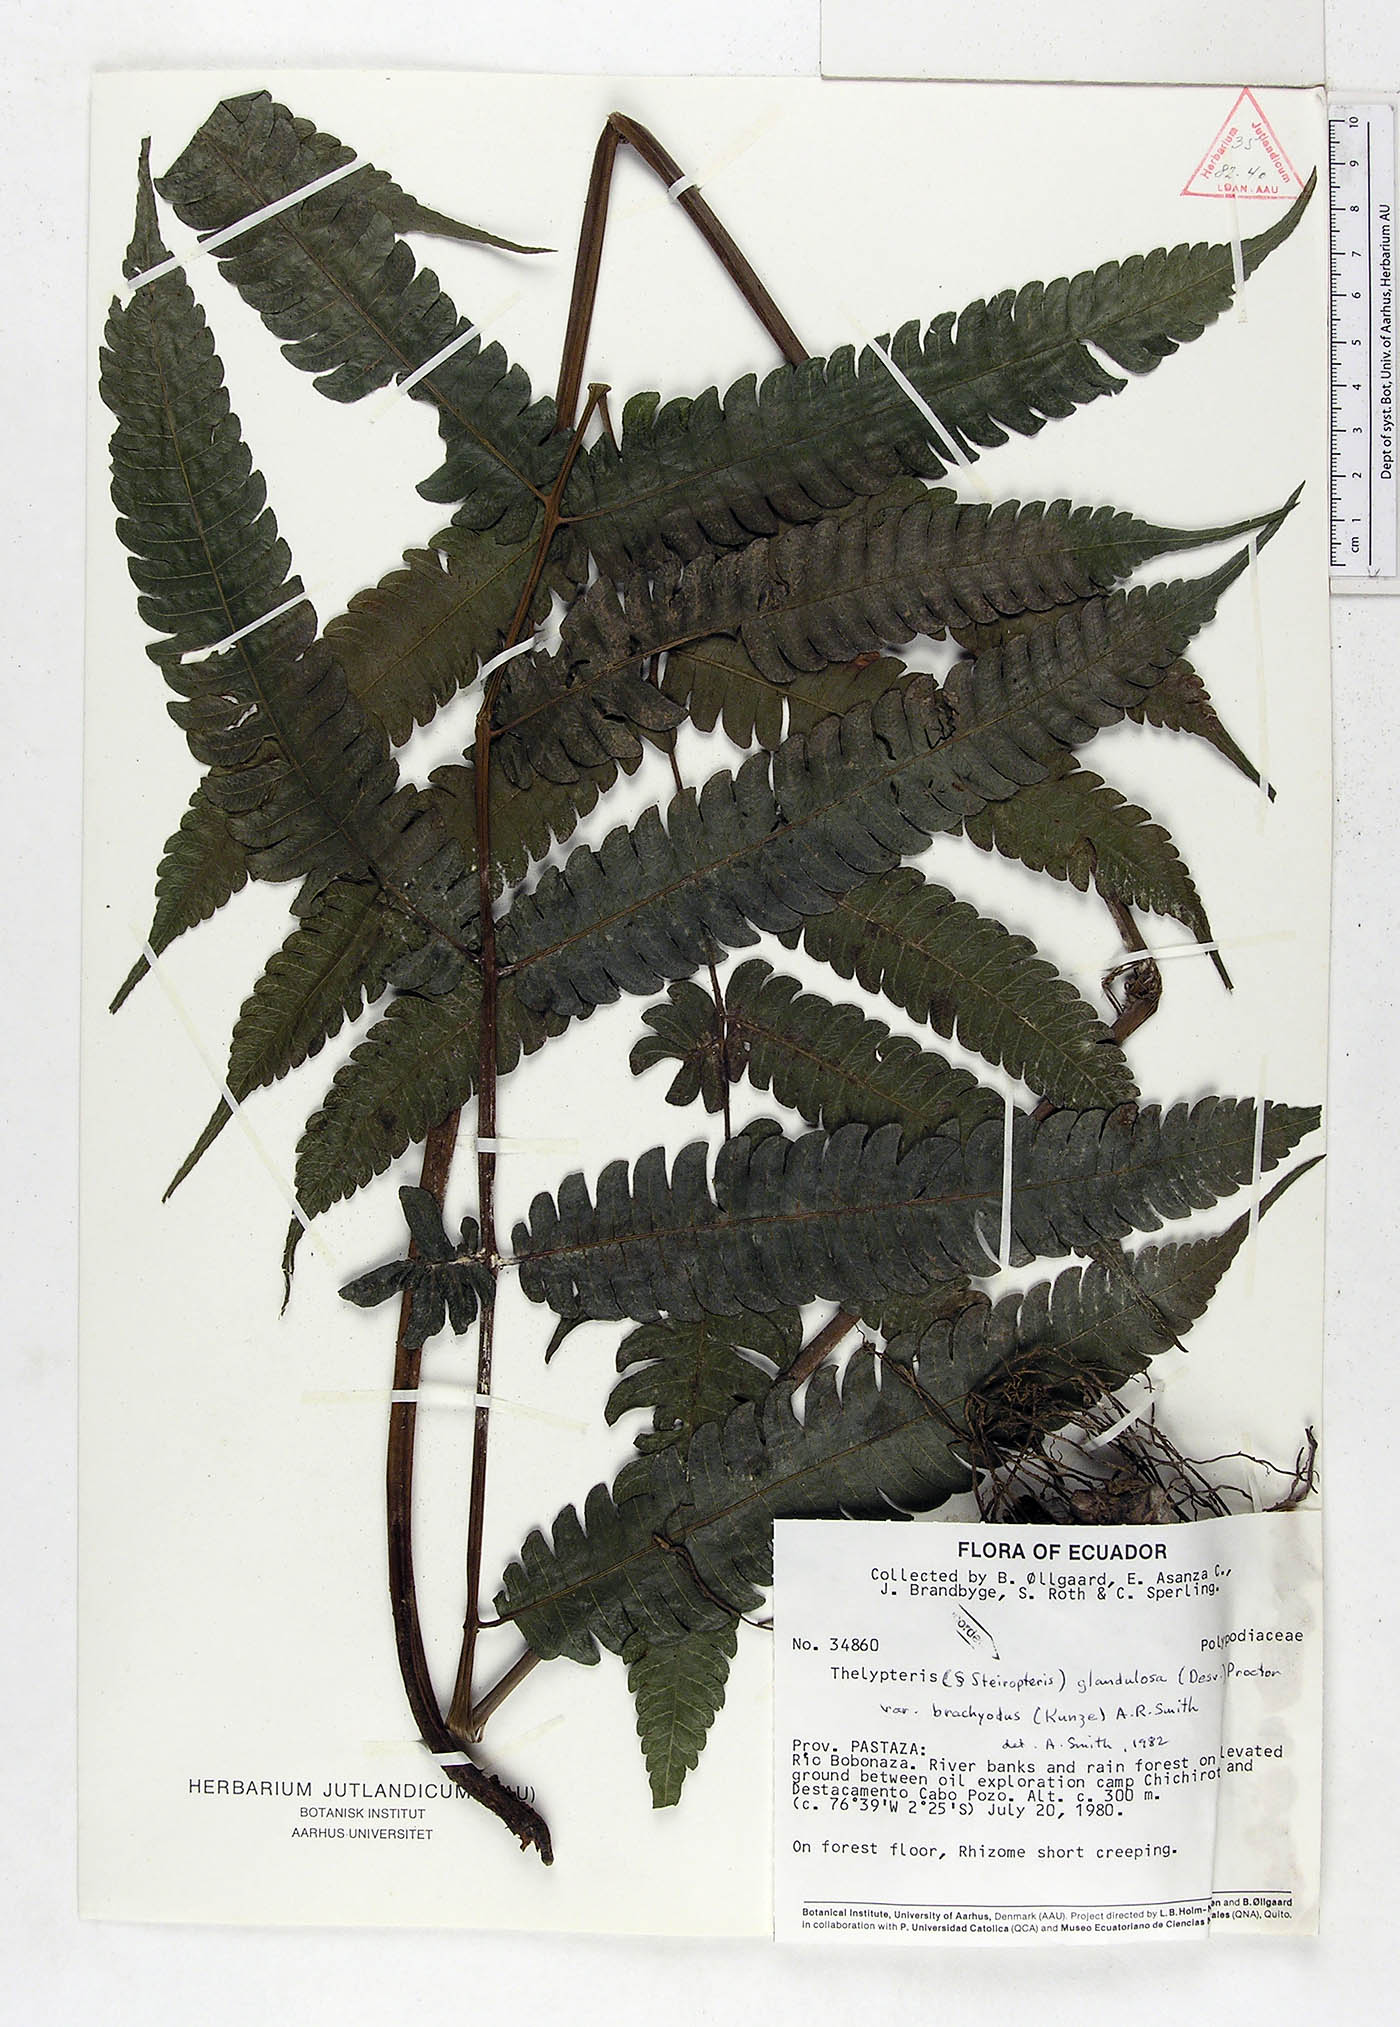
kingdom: Plantae
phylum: Tracheophyta
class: Polypodiopsida
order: Polypodiales
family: Thelypteridaceae
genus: Steiropteris
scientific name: Steiropteris glandulosa
